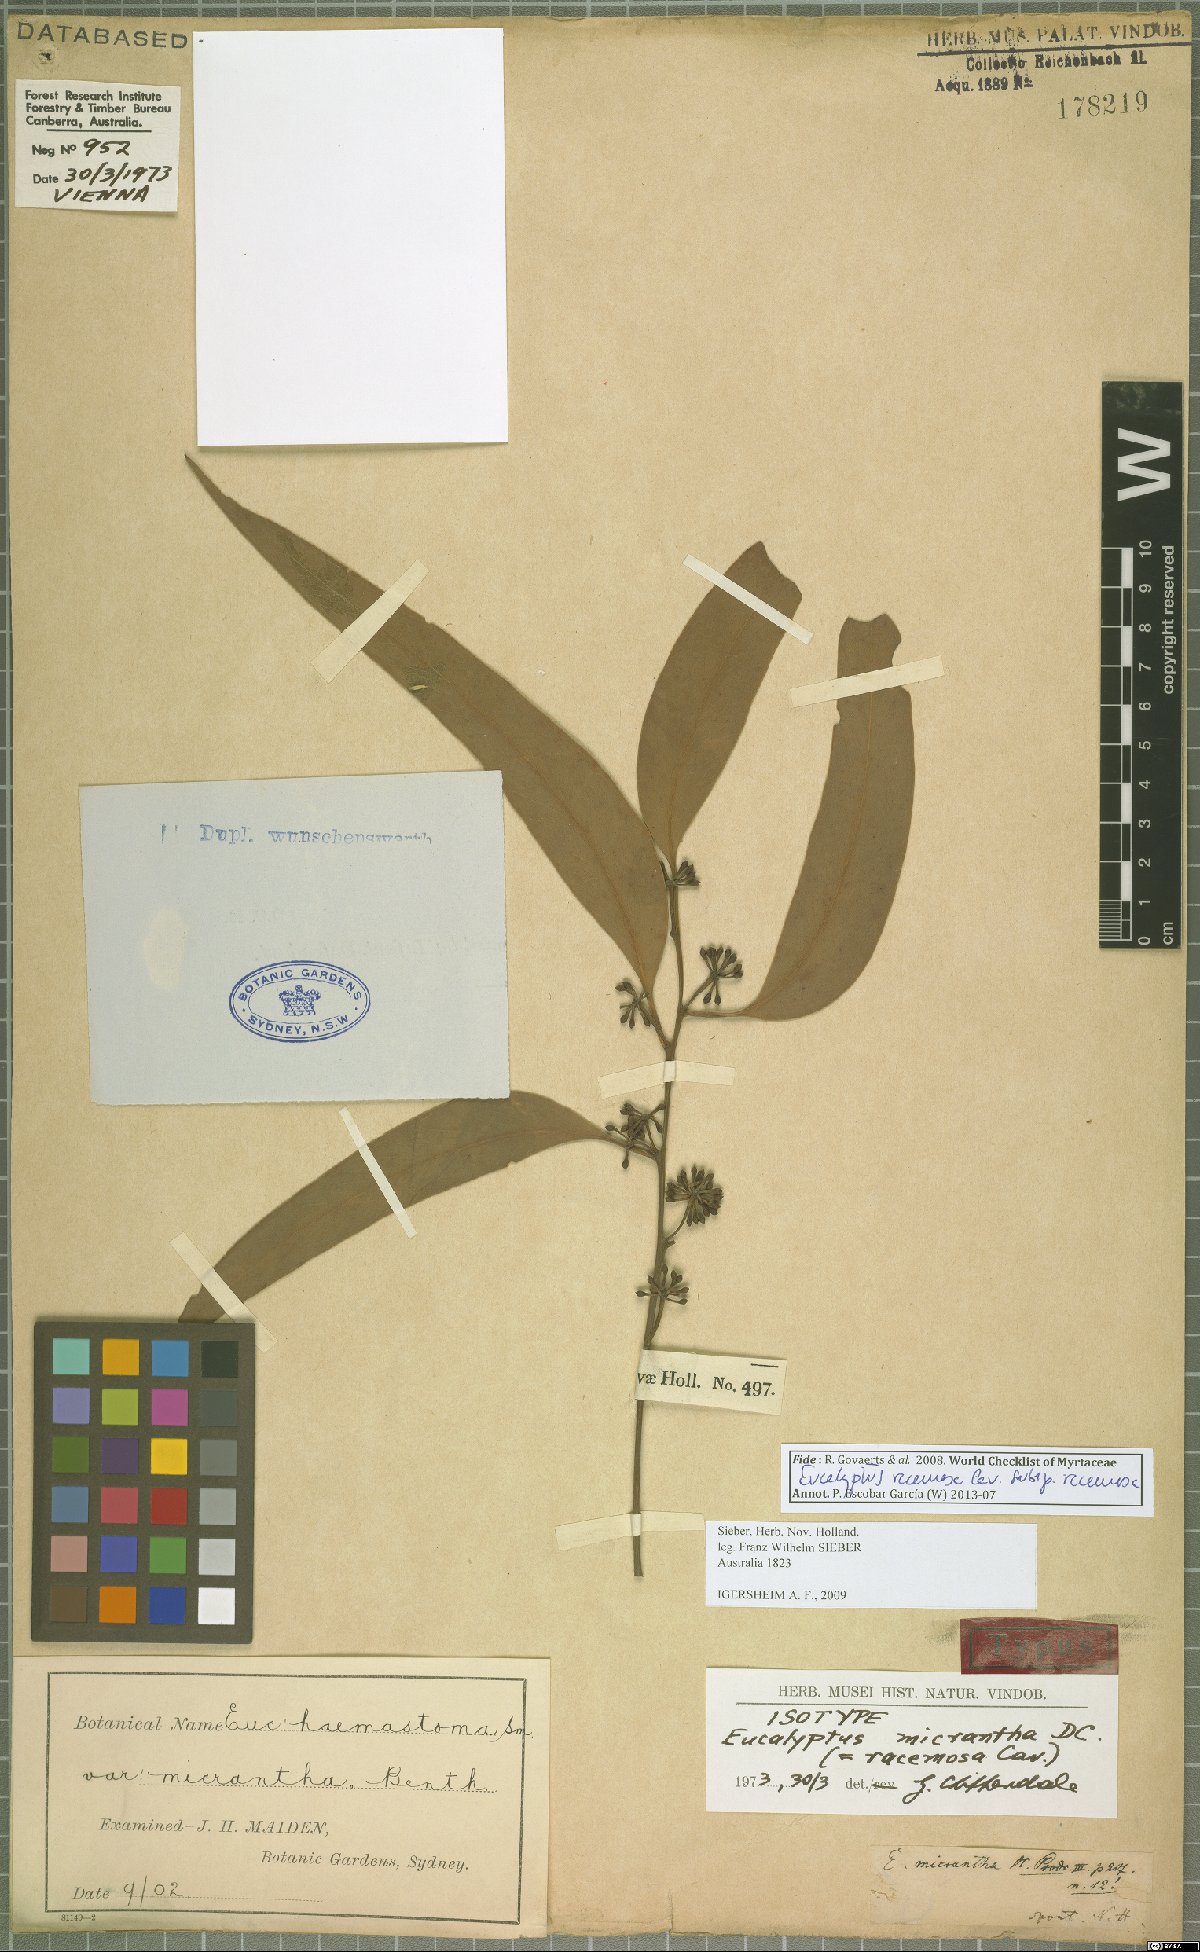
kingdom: Plantae
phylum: Tracheophyta
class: Magnoliopsida
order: Myrtales
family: Myrtaceae
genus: Eucalyptus
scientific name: Eucalyptus racemosa
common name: Scribbly gum
